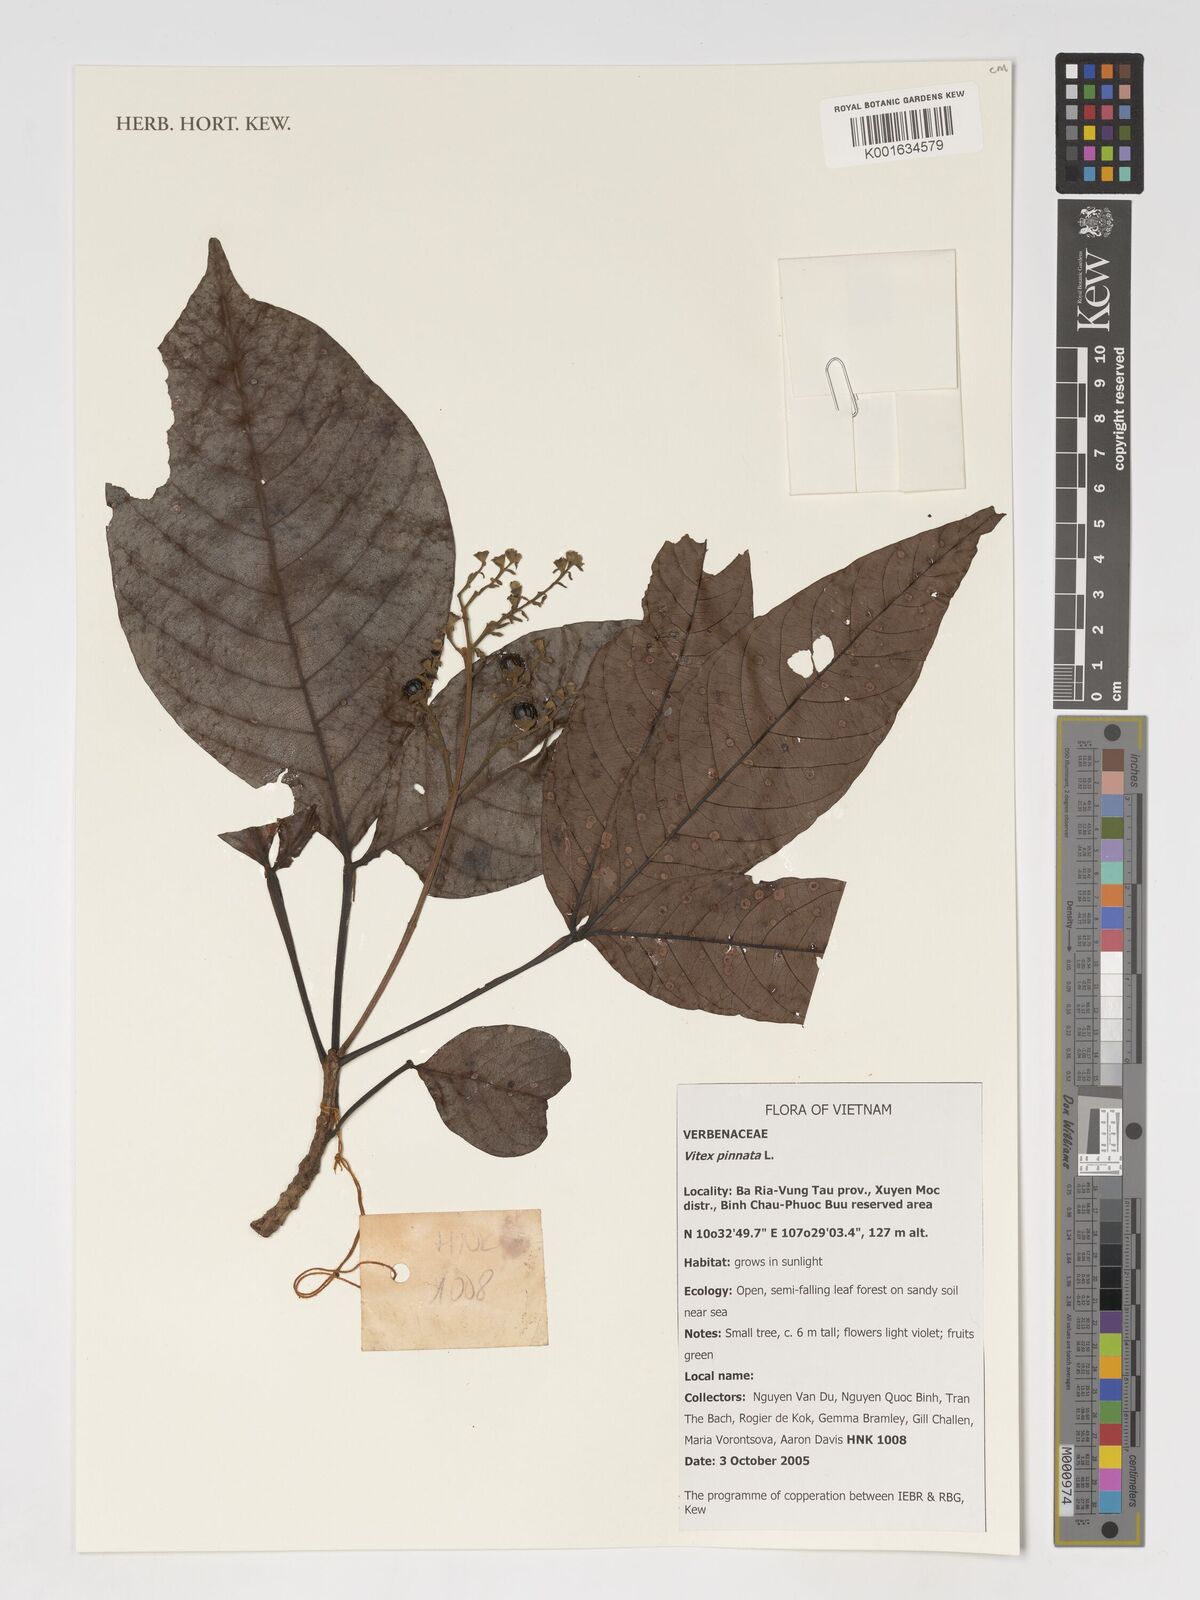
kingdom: Plantae
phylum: Tracheophyta
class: Magnoliopsida
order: Lamiales
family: Lamiaceae
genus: Vitex
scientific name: Vitex pinnata
